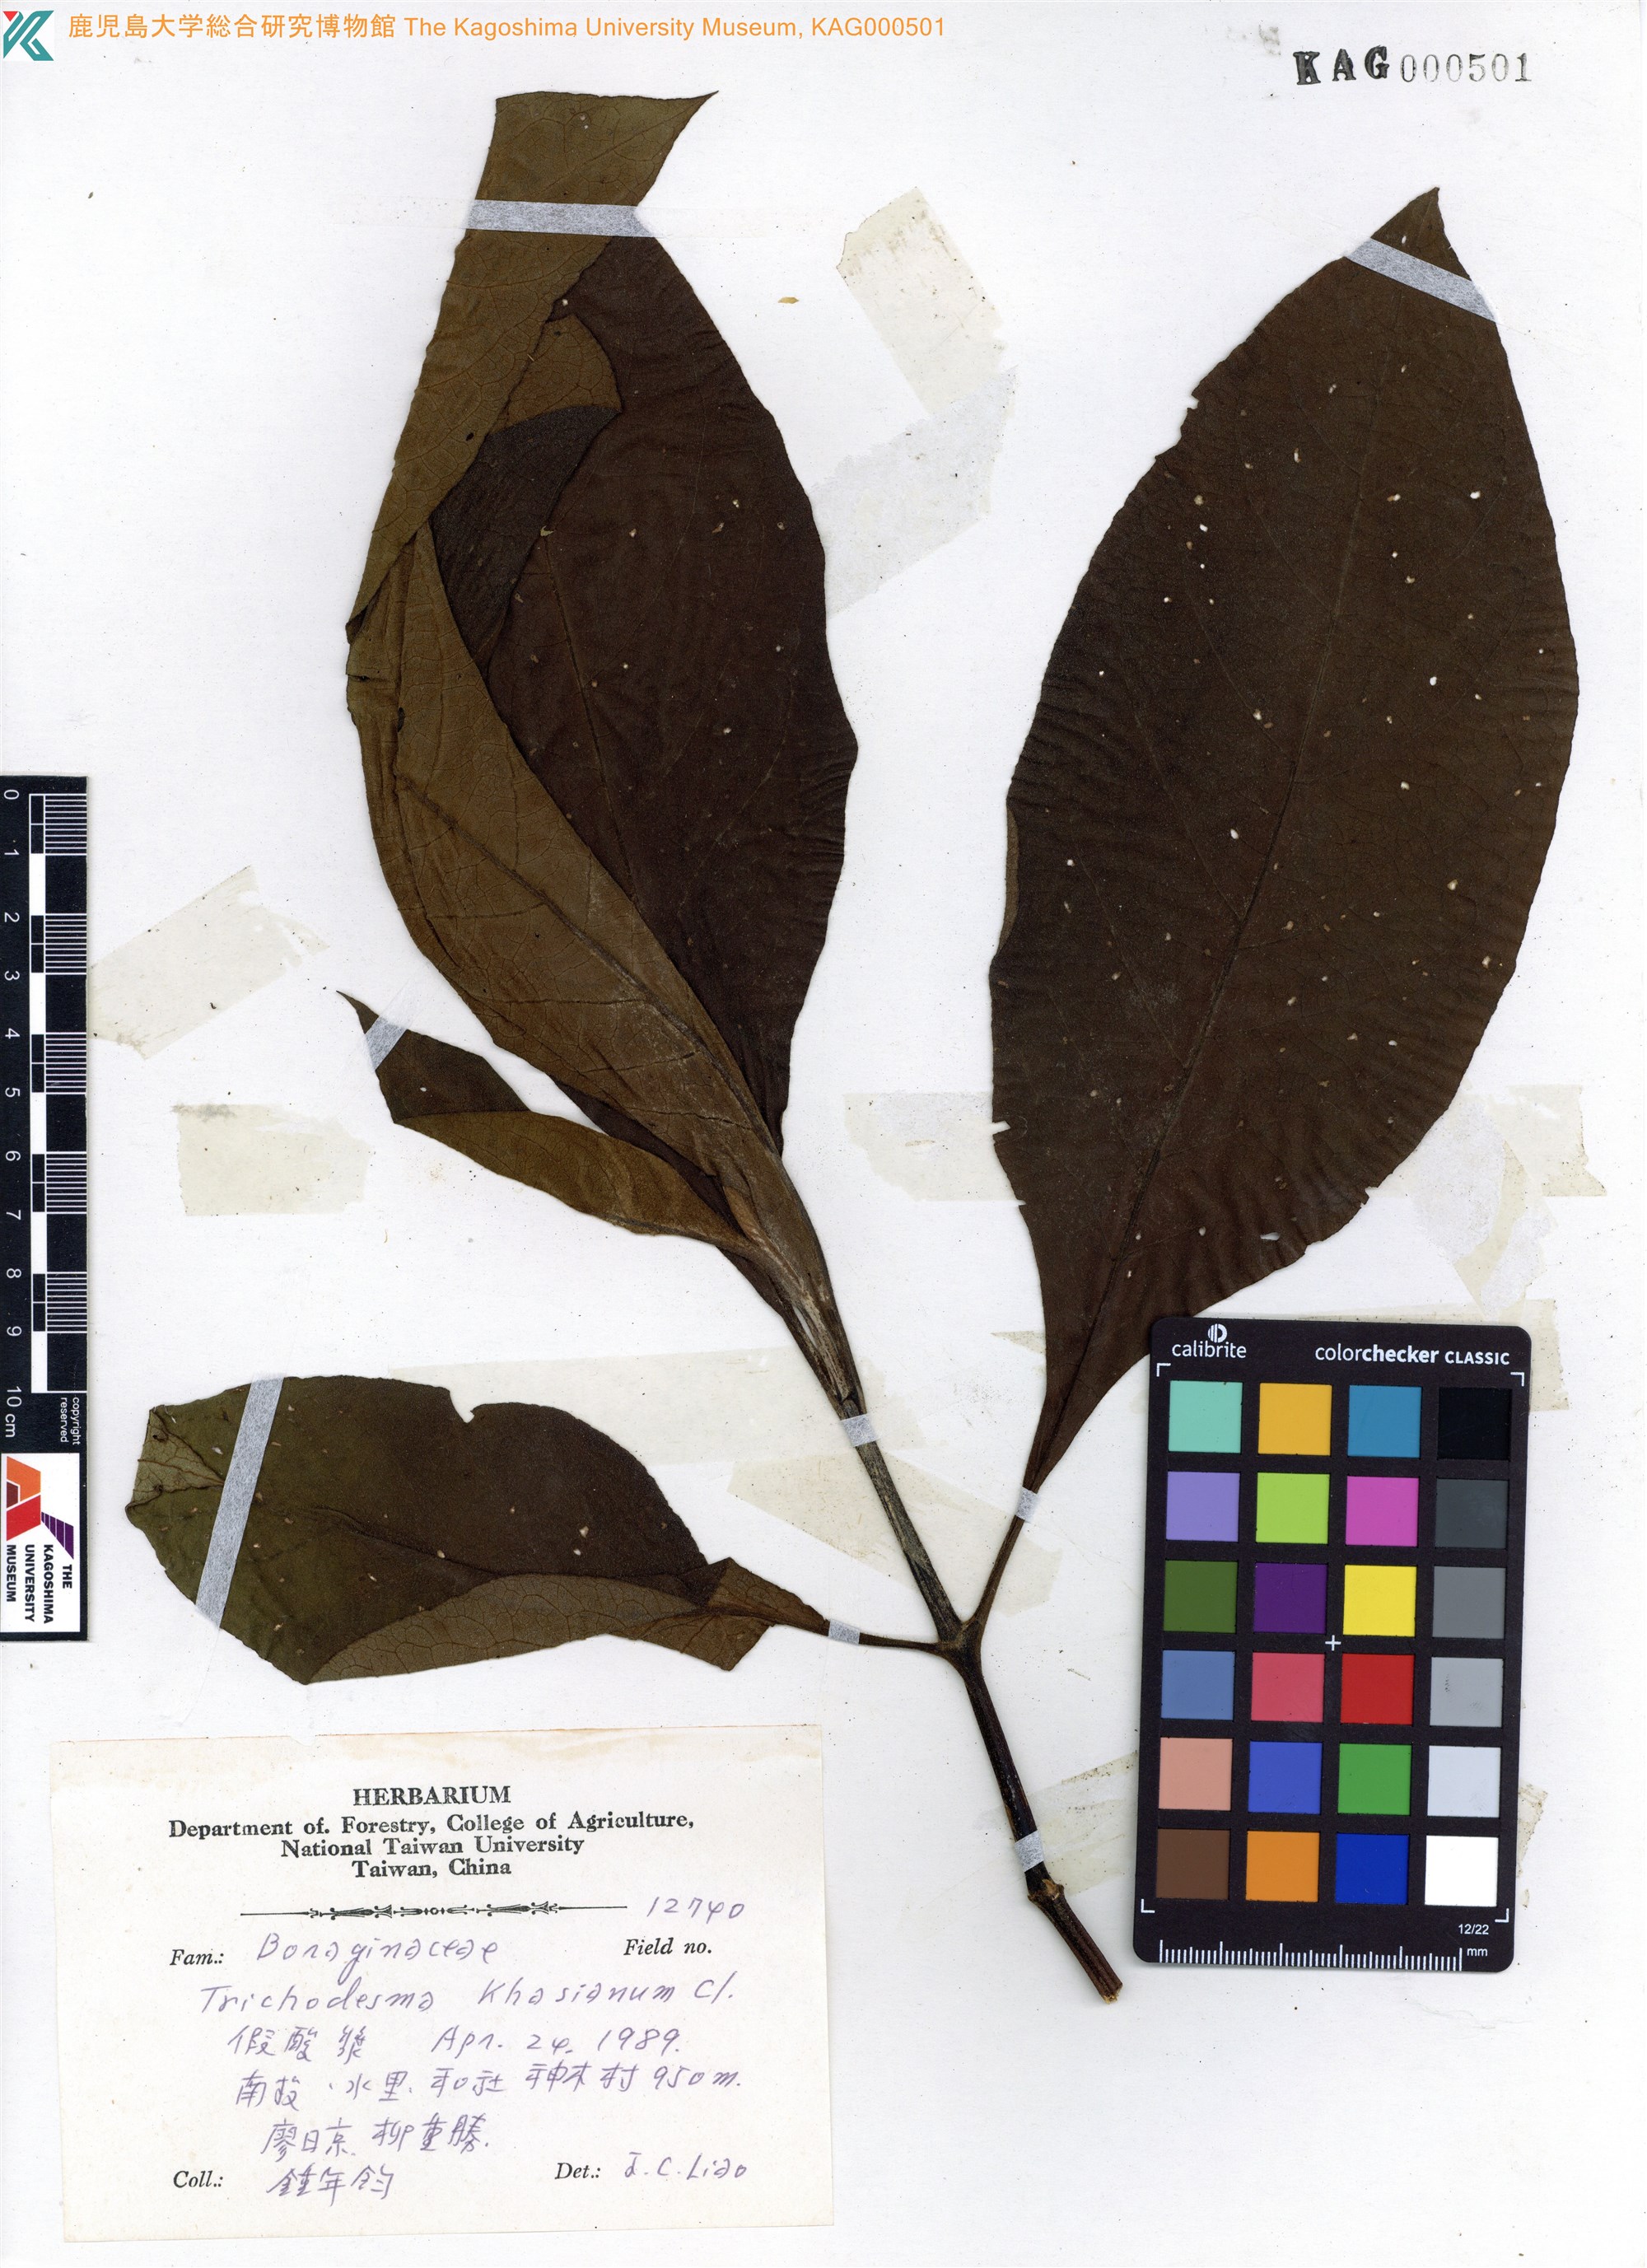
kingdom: Plantae
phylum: Tracheophyta
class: Magnoliopsida
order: Boraginales
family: Boraginaceae
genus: Trichodesma
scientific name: Trichodesma khasianum
